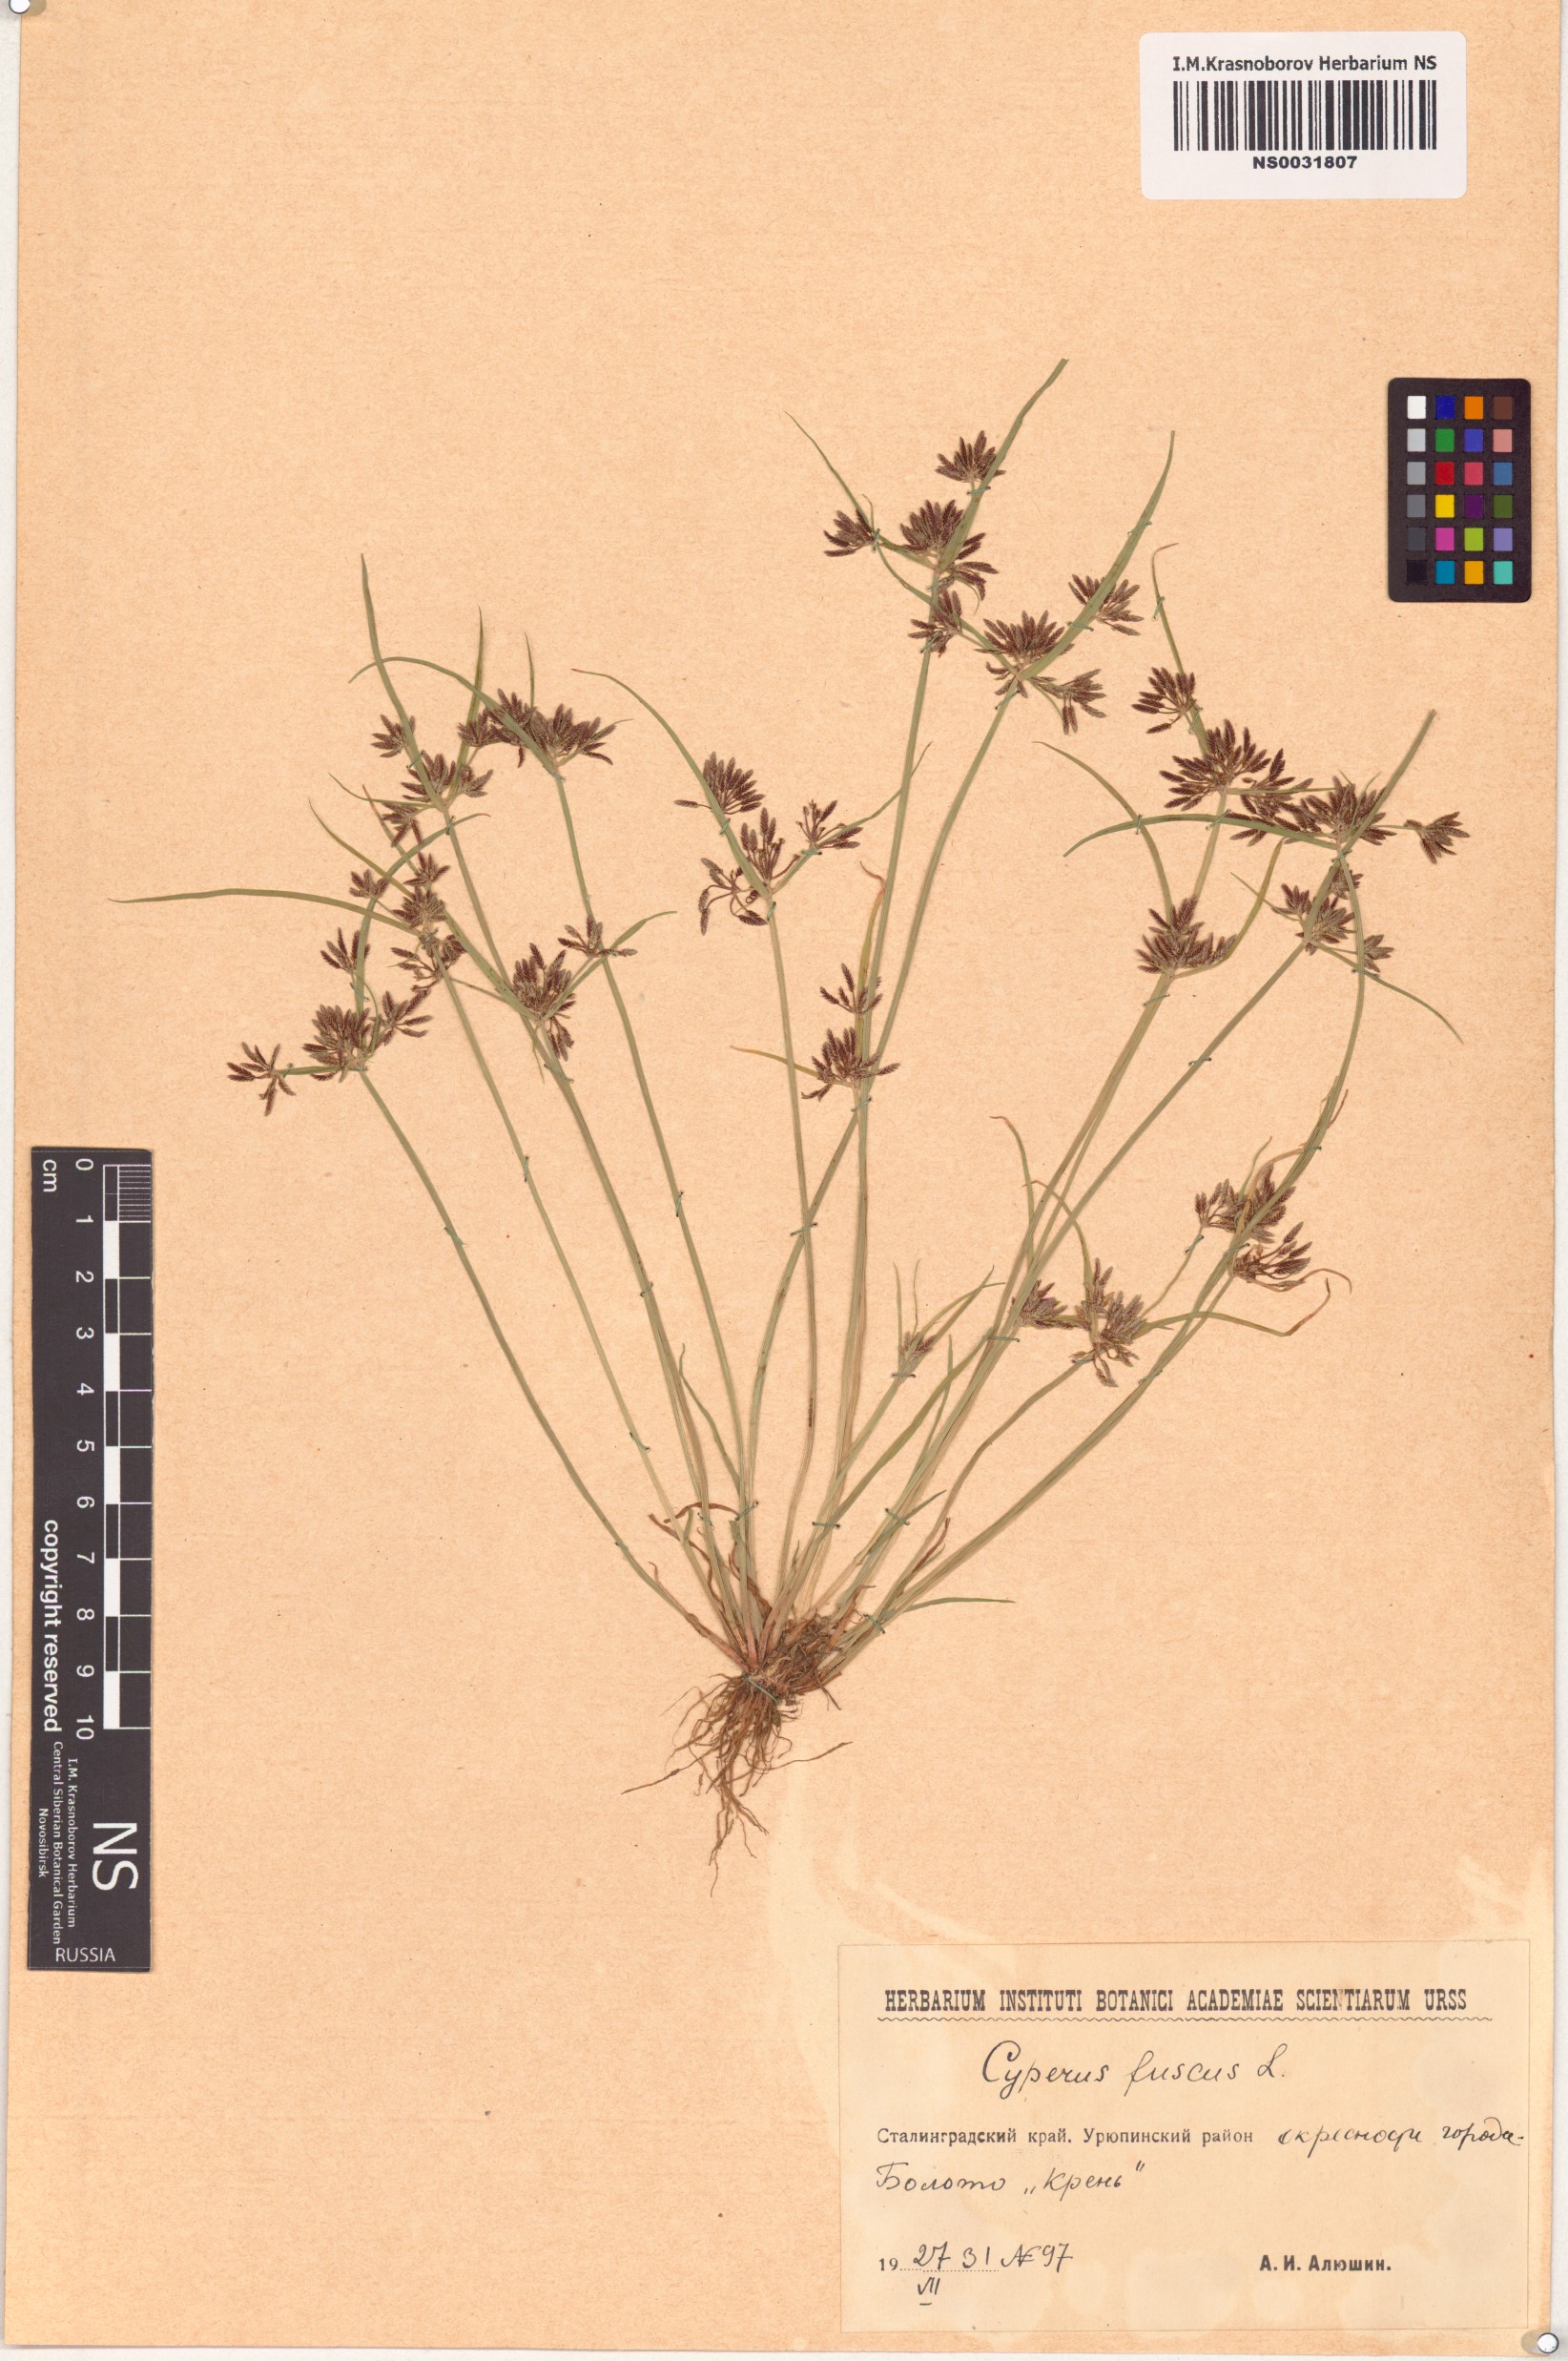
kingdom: Plantae
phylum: Tracheophyta
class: Liliopsida
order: Poales
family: Cyperaceae
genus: Cyperus
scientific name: Cyperus fuscus
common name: Brown galingale
